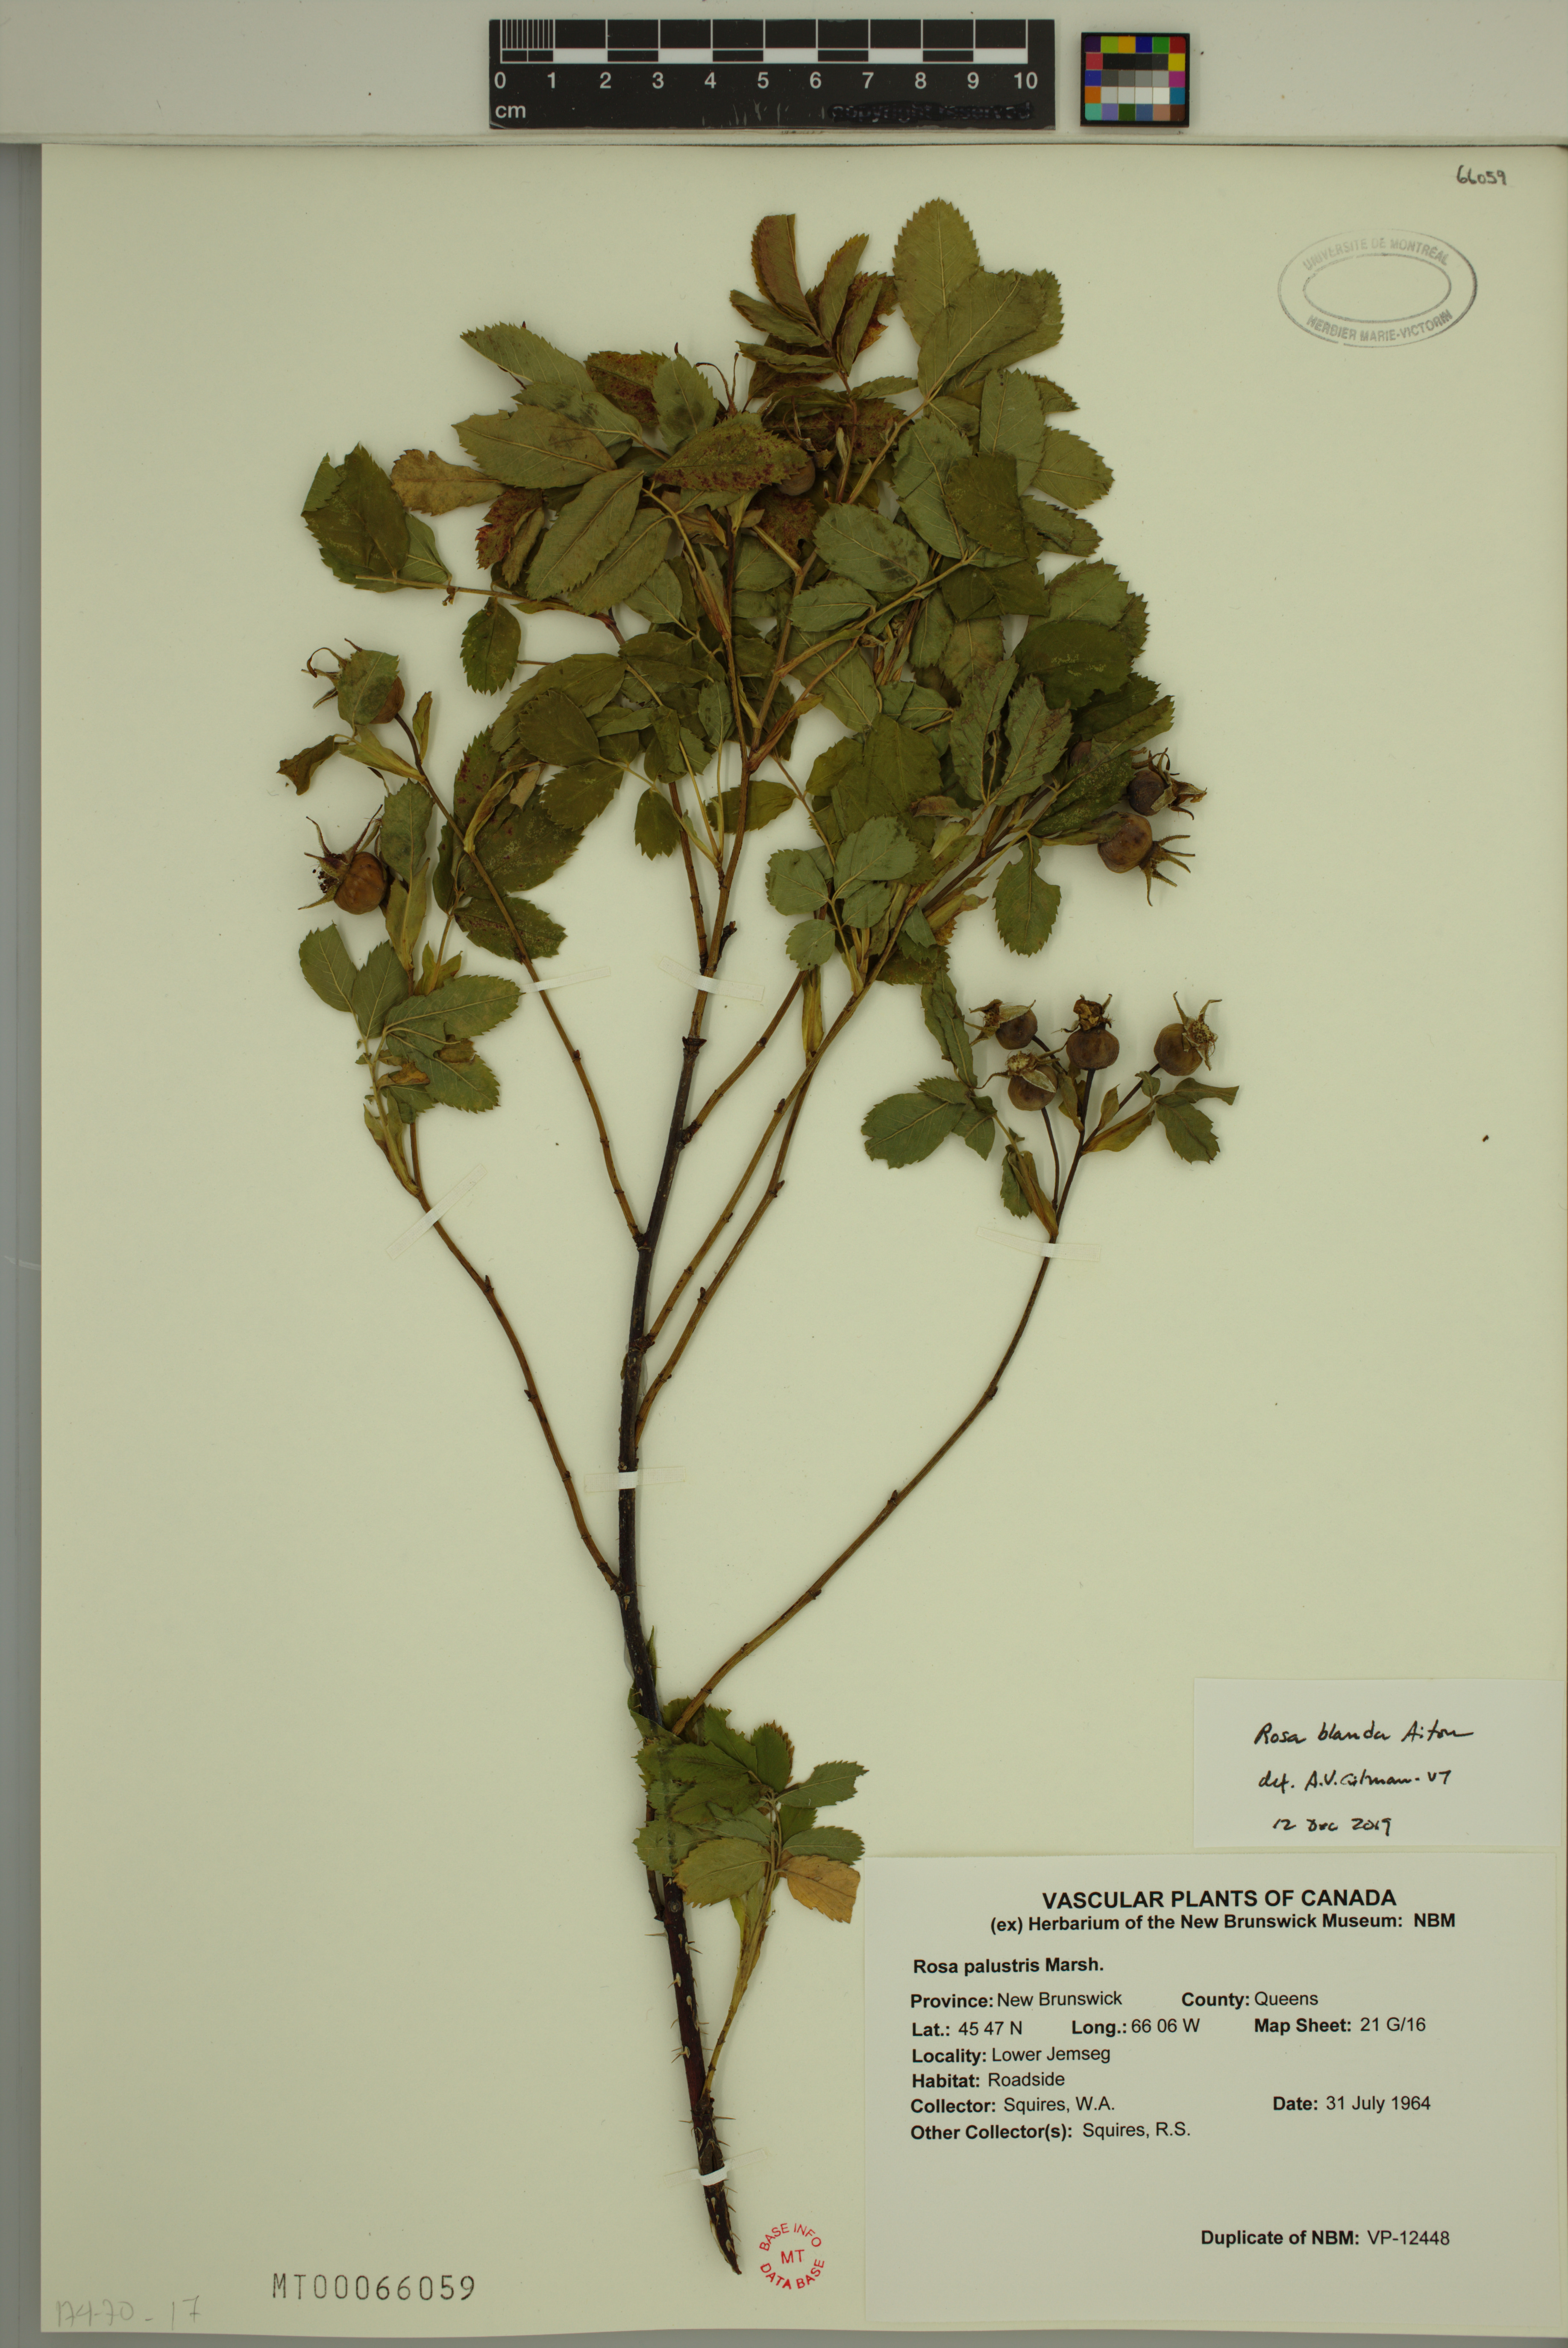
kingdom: Plantae
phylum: Tracheophyta
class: Magnoliopsida
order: Rosales
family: Rosaceae
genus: Rosa
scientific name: Rosa blanda
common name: Smooth rose
